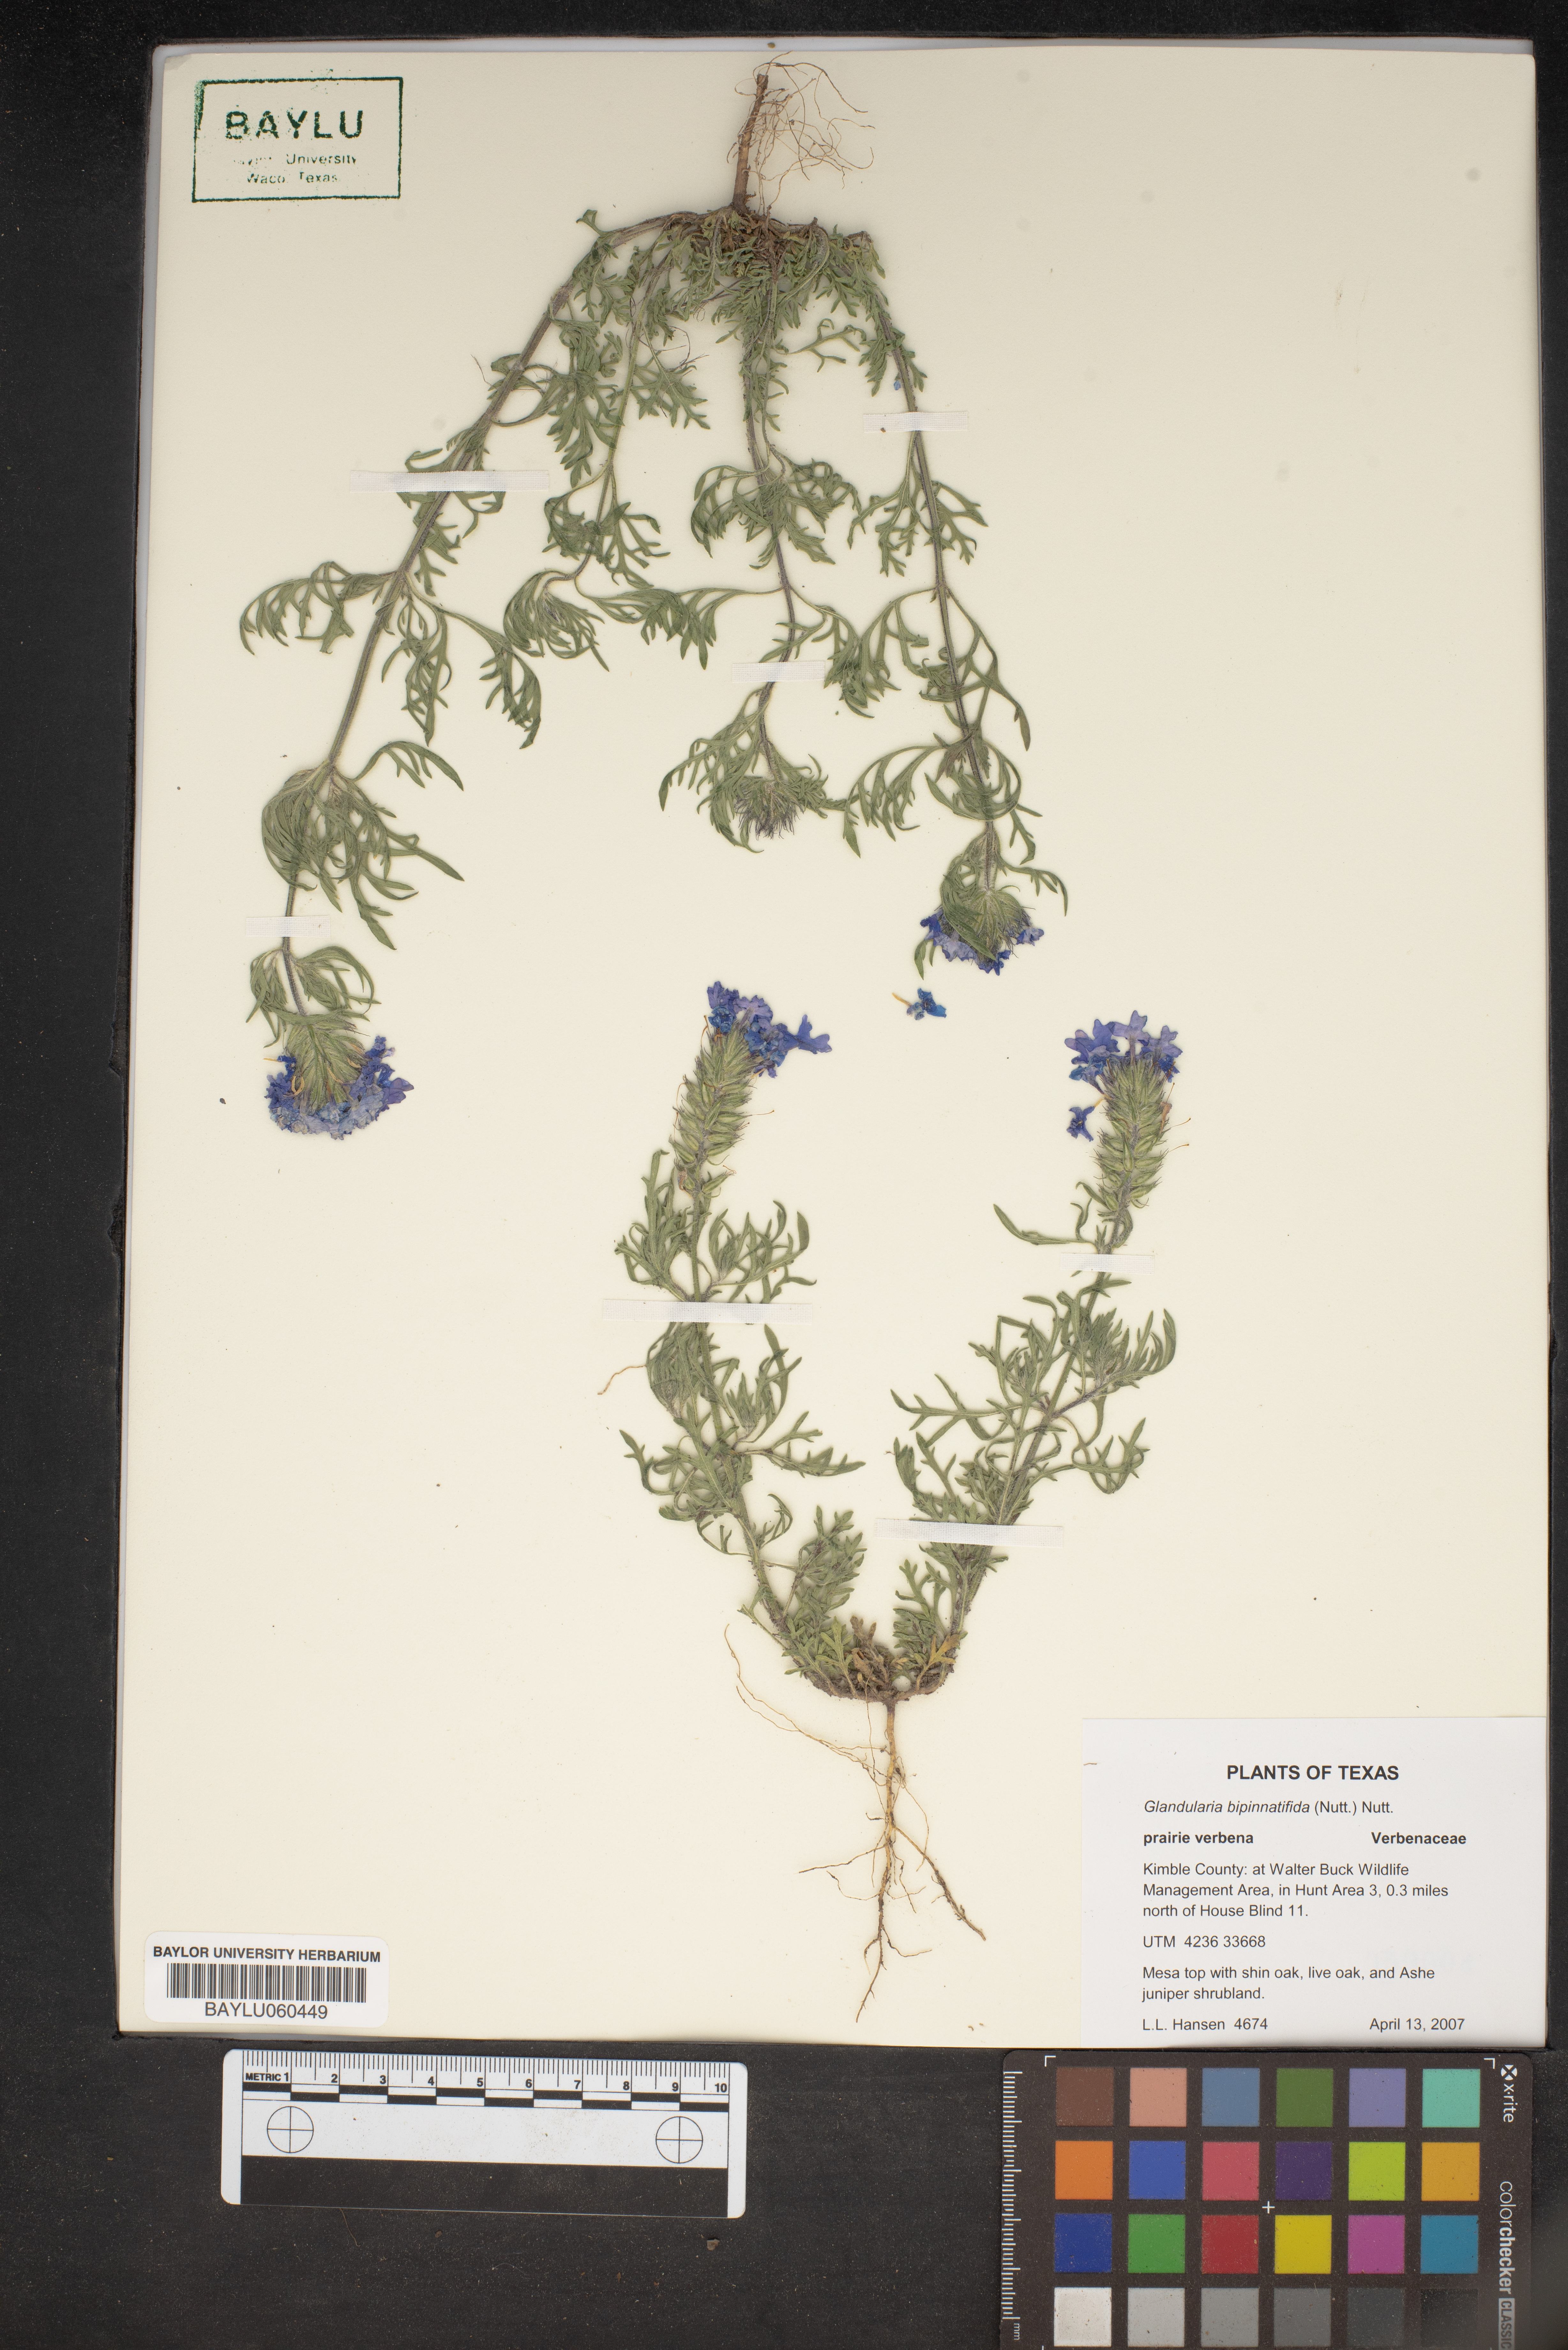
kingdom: Plantae
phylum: Tracheophyta
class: Magnoliopsida
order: Lamiales
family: Verbenaceae
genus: Verbena
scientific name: Verbena bipinnatifida
